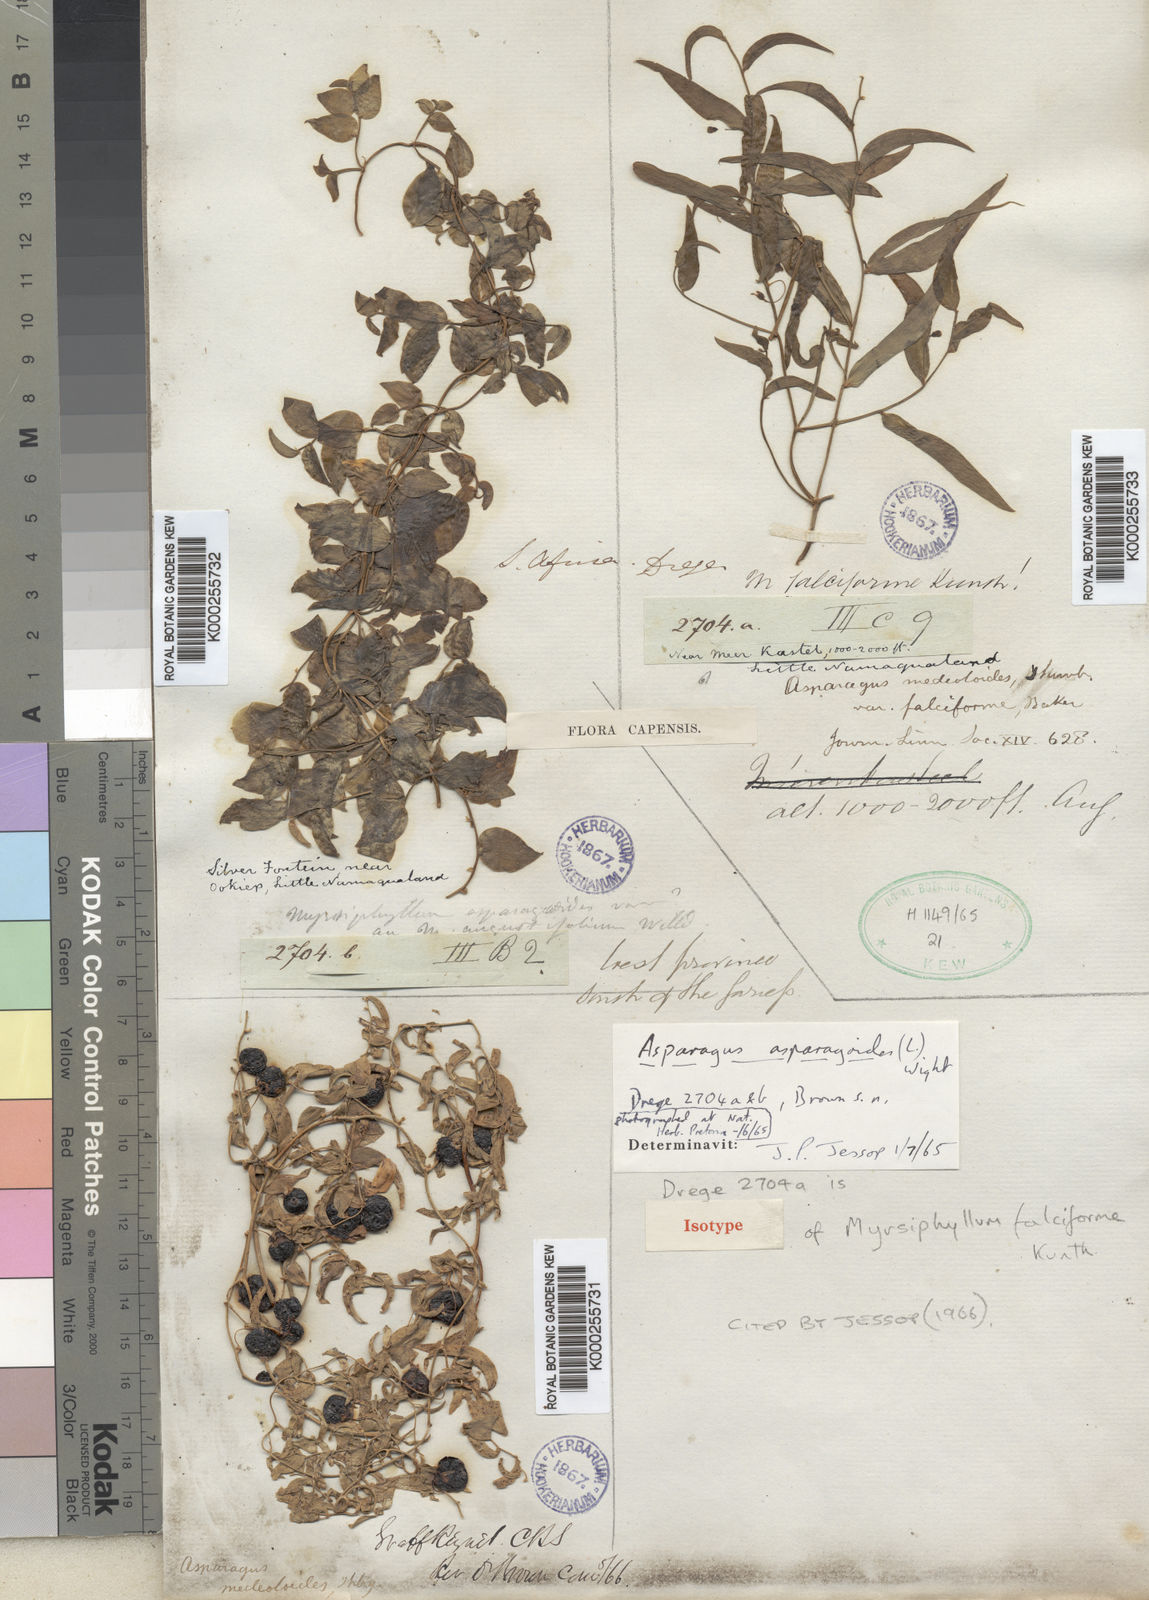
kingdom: Plantae
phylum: Tracheophyta
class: Liliopsida
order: Asparagales
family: Asparagaceae
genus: Asparagus
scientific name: Asparagus
